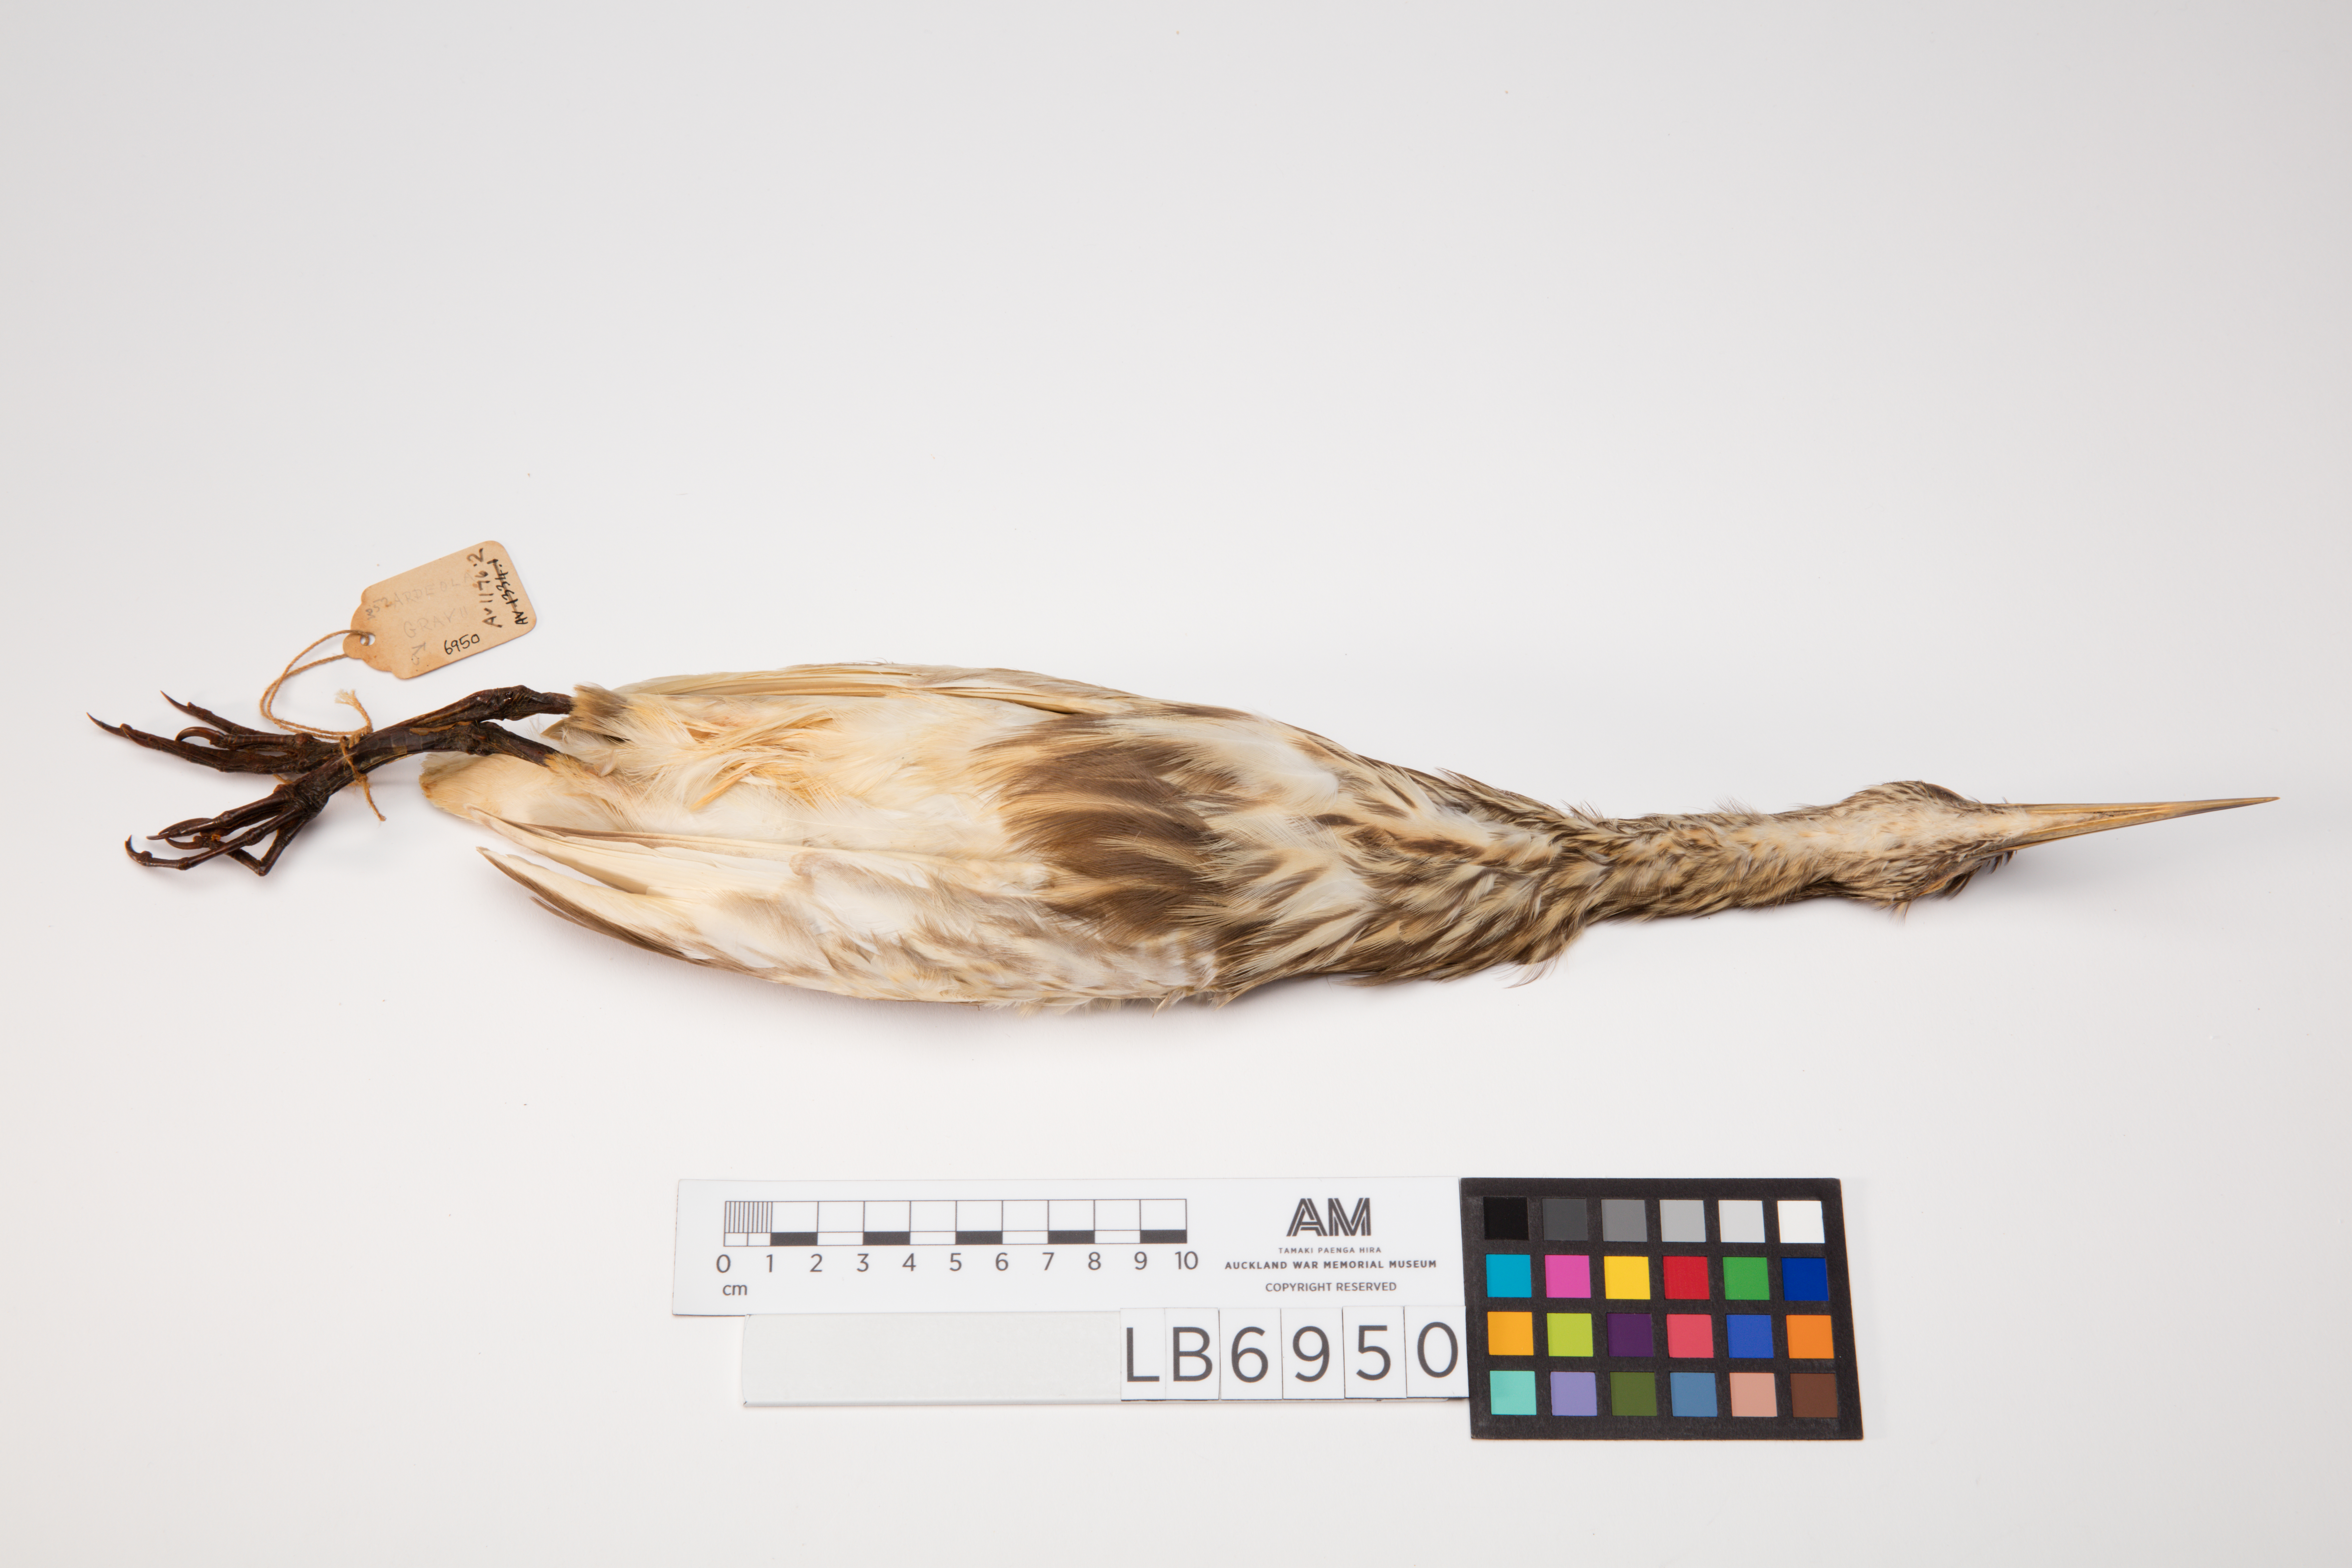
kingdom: Animalia
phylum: Chordata
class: Aves
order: Pelecaniformes
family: Ardeidae
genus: Ardeola
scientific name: Ardeola grayii
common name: Indian pond heron
